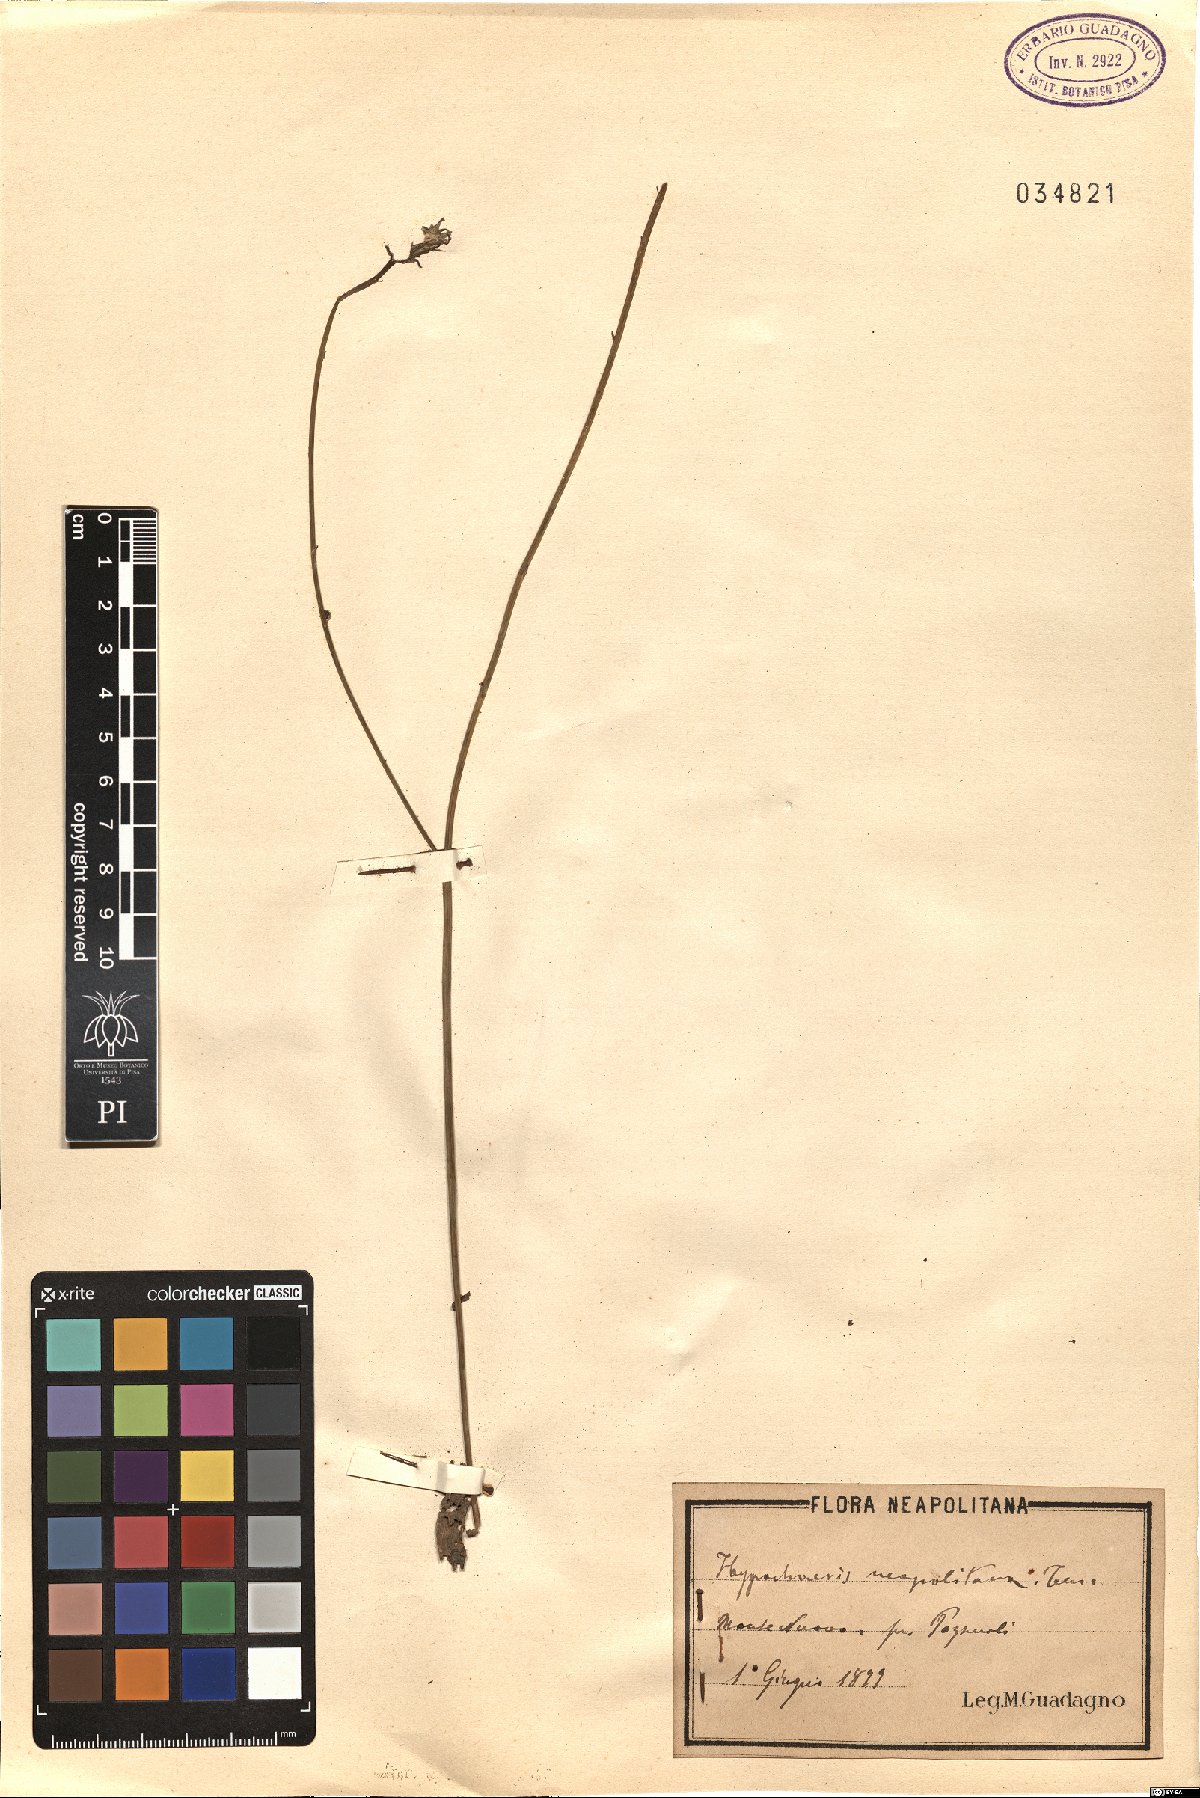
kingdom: Plantae
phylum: Tracheophyta
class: Magnoliopsida
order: Asterales
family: Asteraceae
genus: Hypochaeris
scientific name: Hypochaeris radicata
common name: Flatweed
